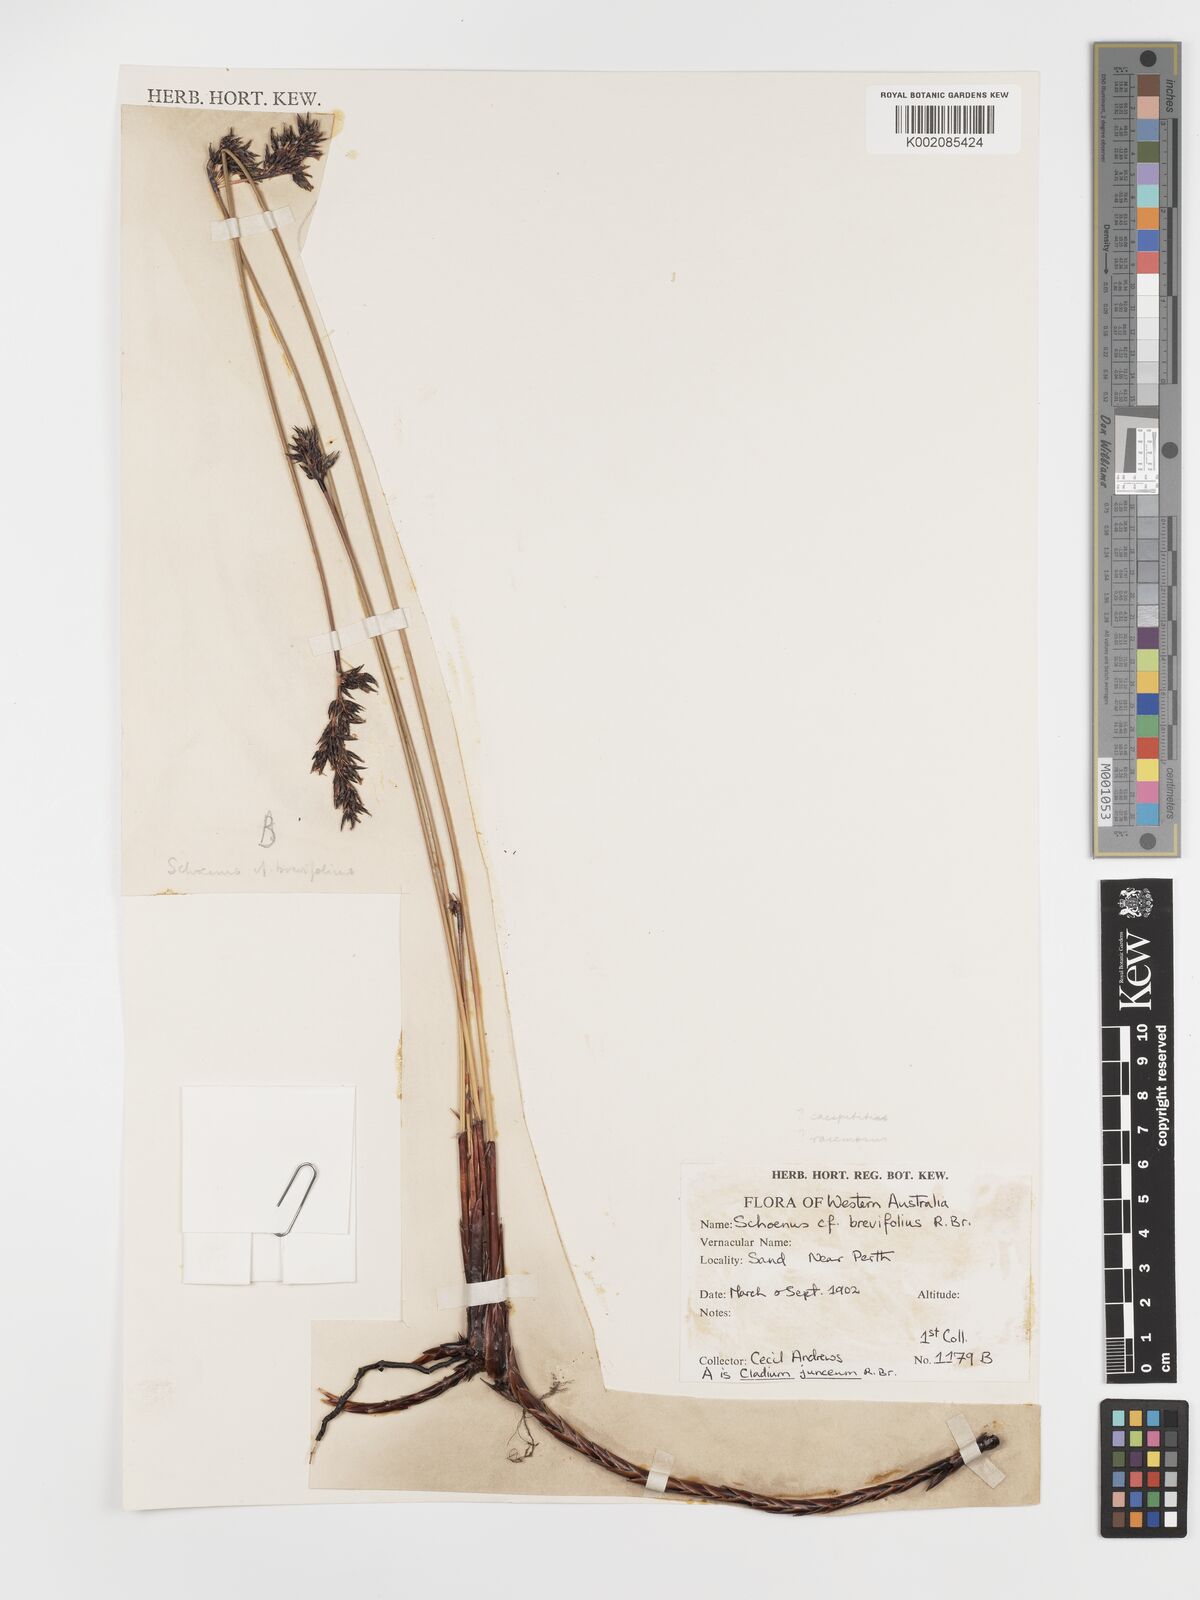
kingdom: Plantae
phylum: Tracheophyta
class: Liliopsida
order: Poales
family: Cyperaceae
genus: Schoenus
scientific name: Schoenus brevifolius
